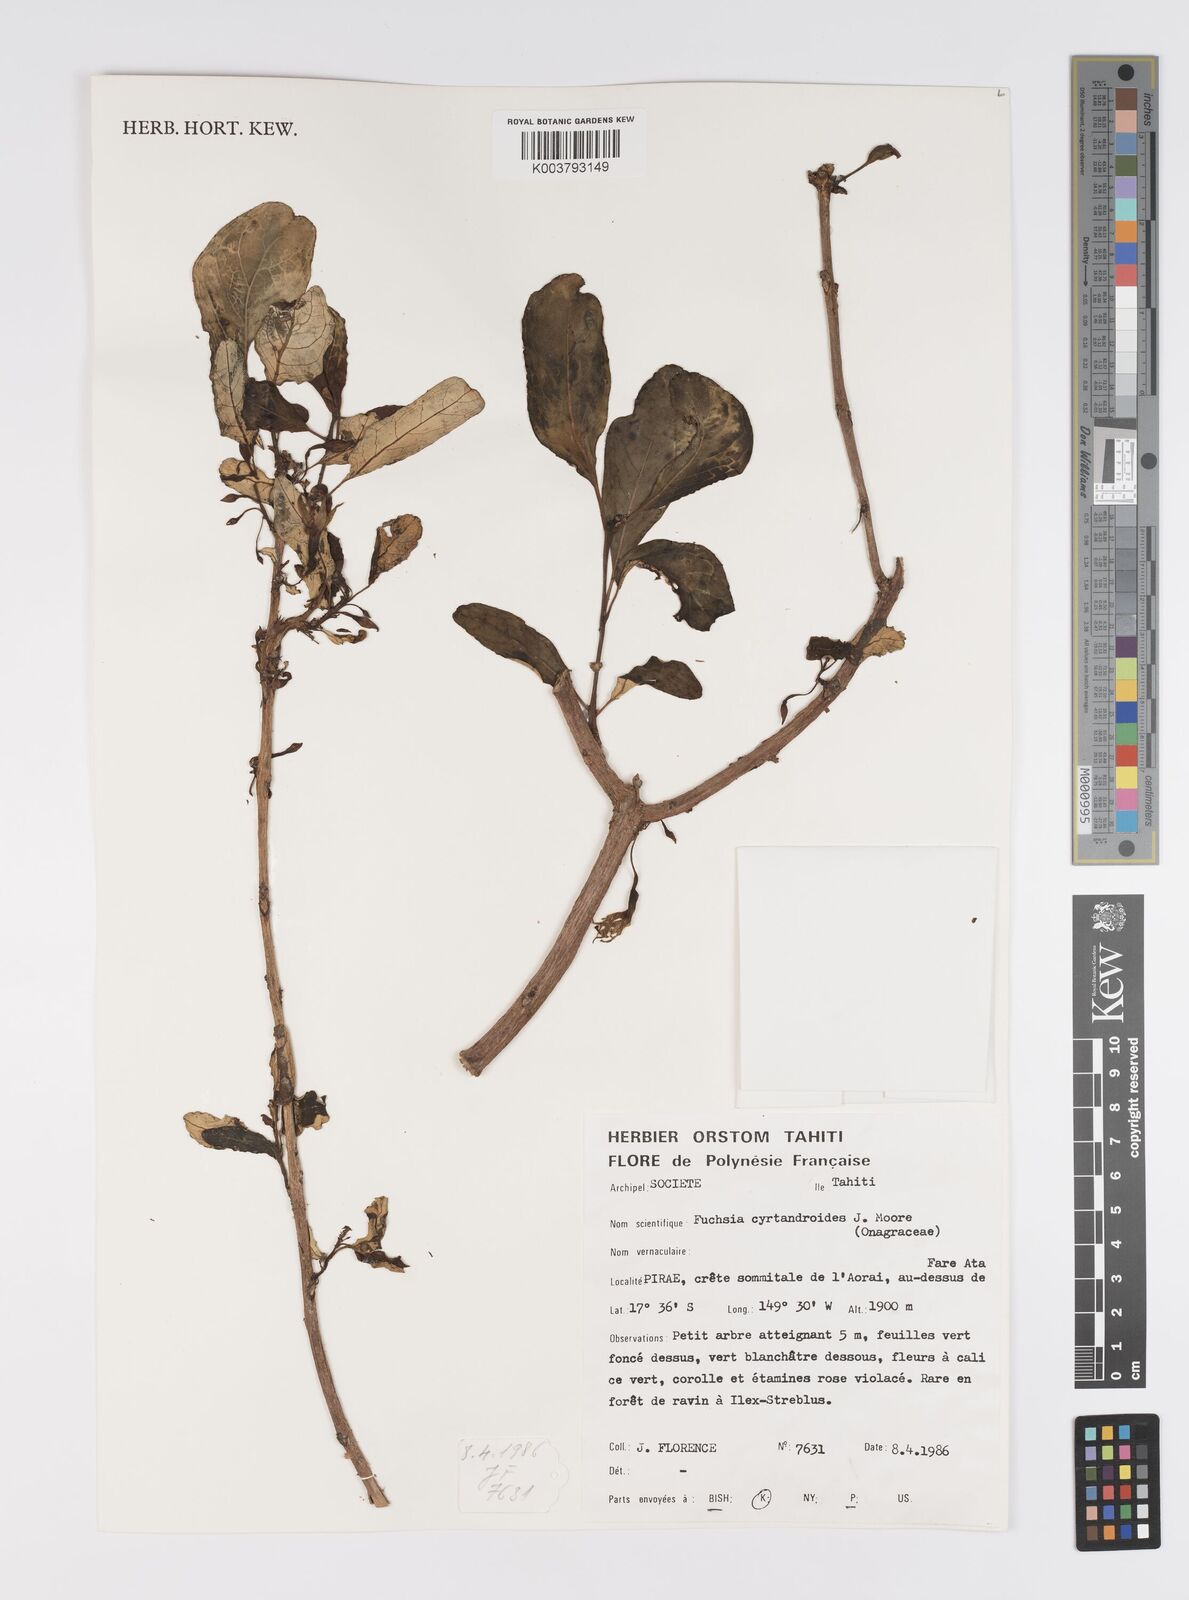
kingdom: Plantae
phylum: Tracheophyta
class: Magnoliopsida
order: Myrtales
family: Onagraceae
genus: Fuchsia
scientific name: Fuchsia cyrtandroides
